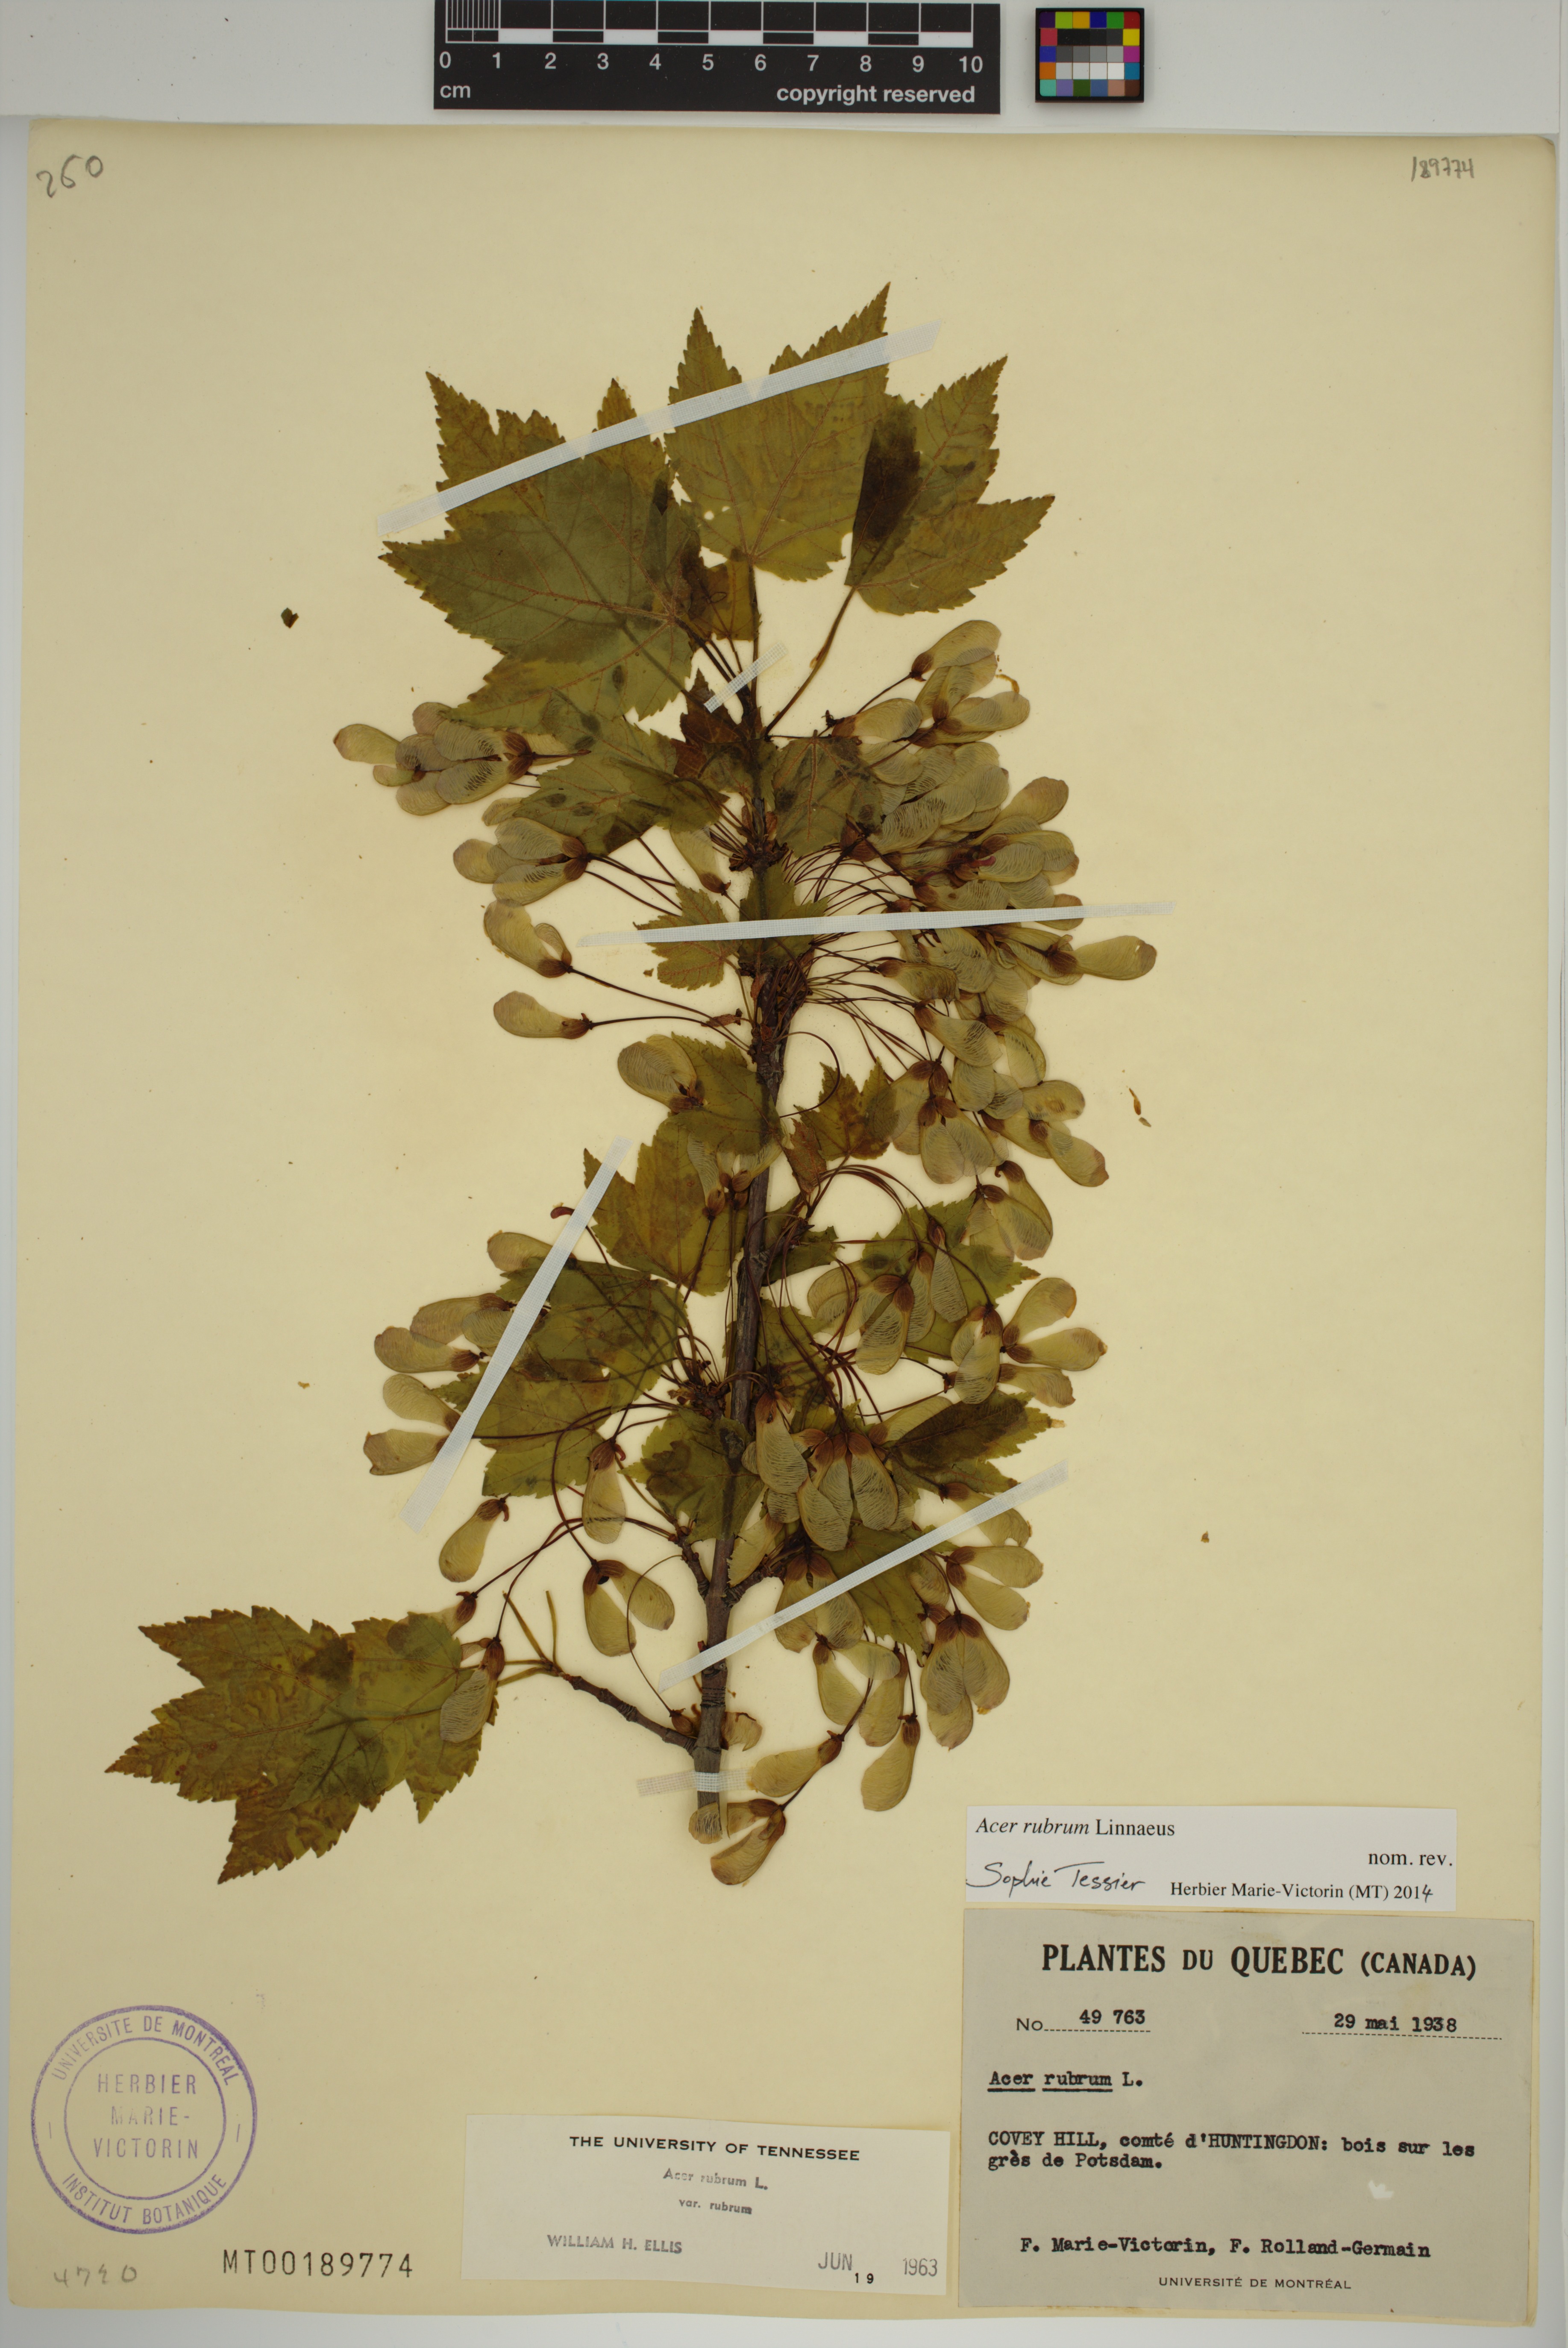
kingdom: Plantae
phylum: Tracheophyta
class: Magnoliopsida
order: Sapindales
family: Sapindaceae
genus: Acer
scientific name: Acer rubrum
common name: Red maple
